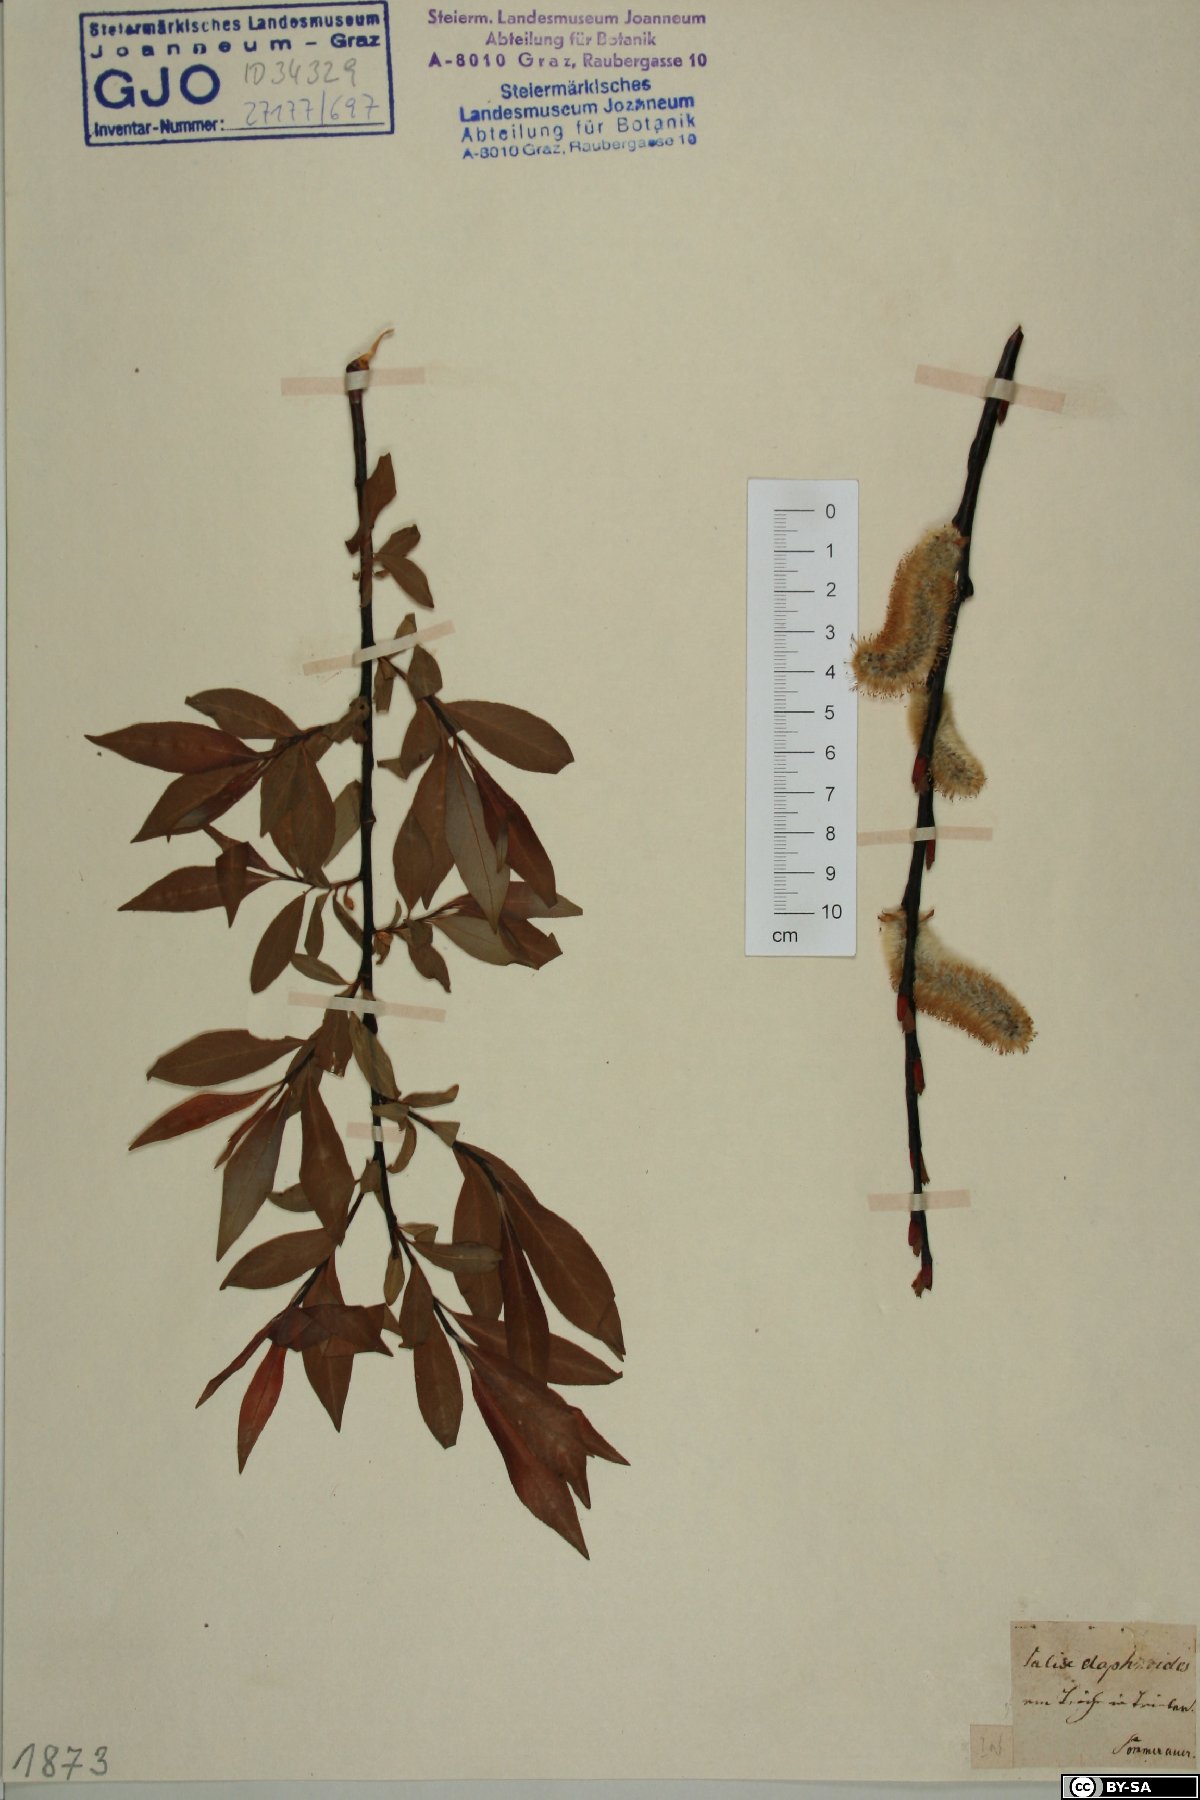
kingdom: Plantae
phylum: Tracheophyta
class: Magnoliopsida
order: Malpighiales
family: Salicaceae
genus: Salix
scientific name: Salix daphnoides
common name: European violet-willow
